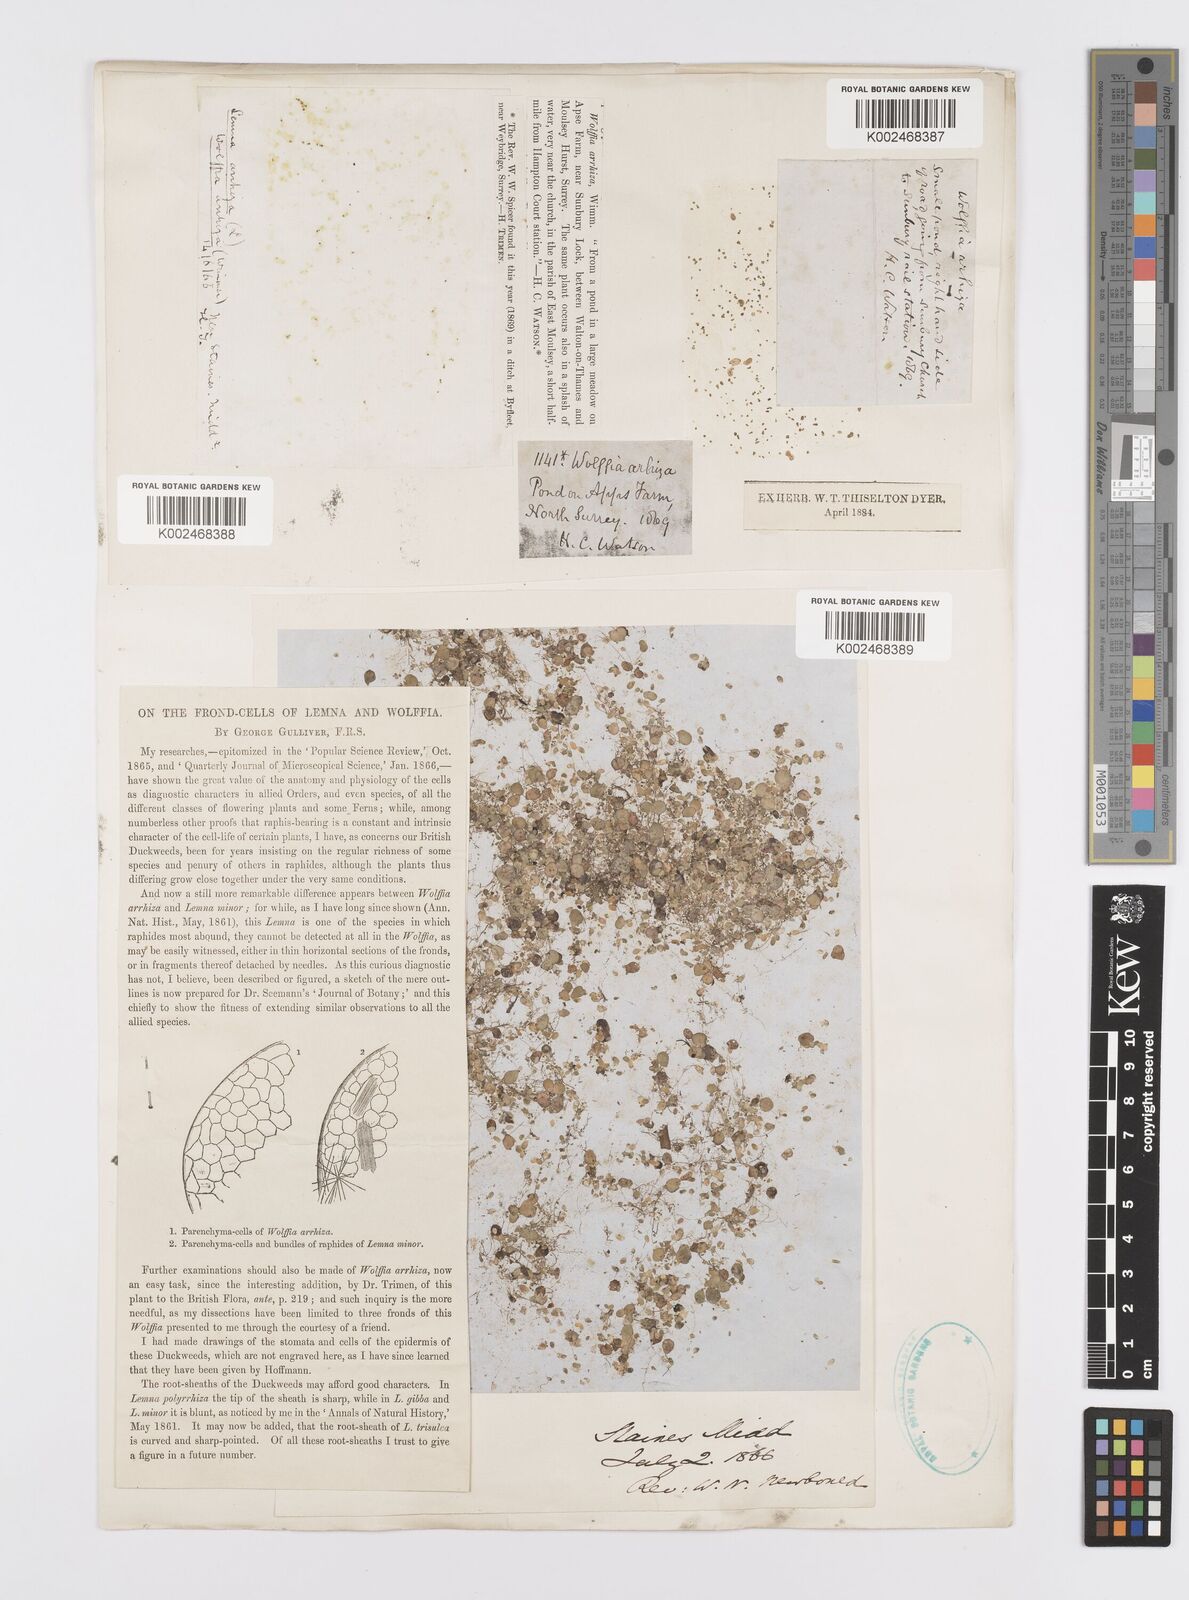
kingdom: Plantae
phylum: Tracheophyta
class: Liliopsida
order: Alismatales
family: Araceae
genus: Wolffia
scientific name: Wolffia arrhiza
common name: Rootless duckweed
